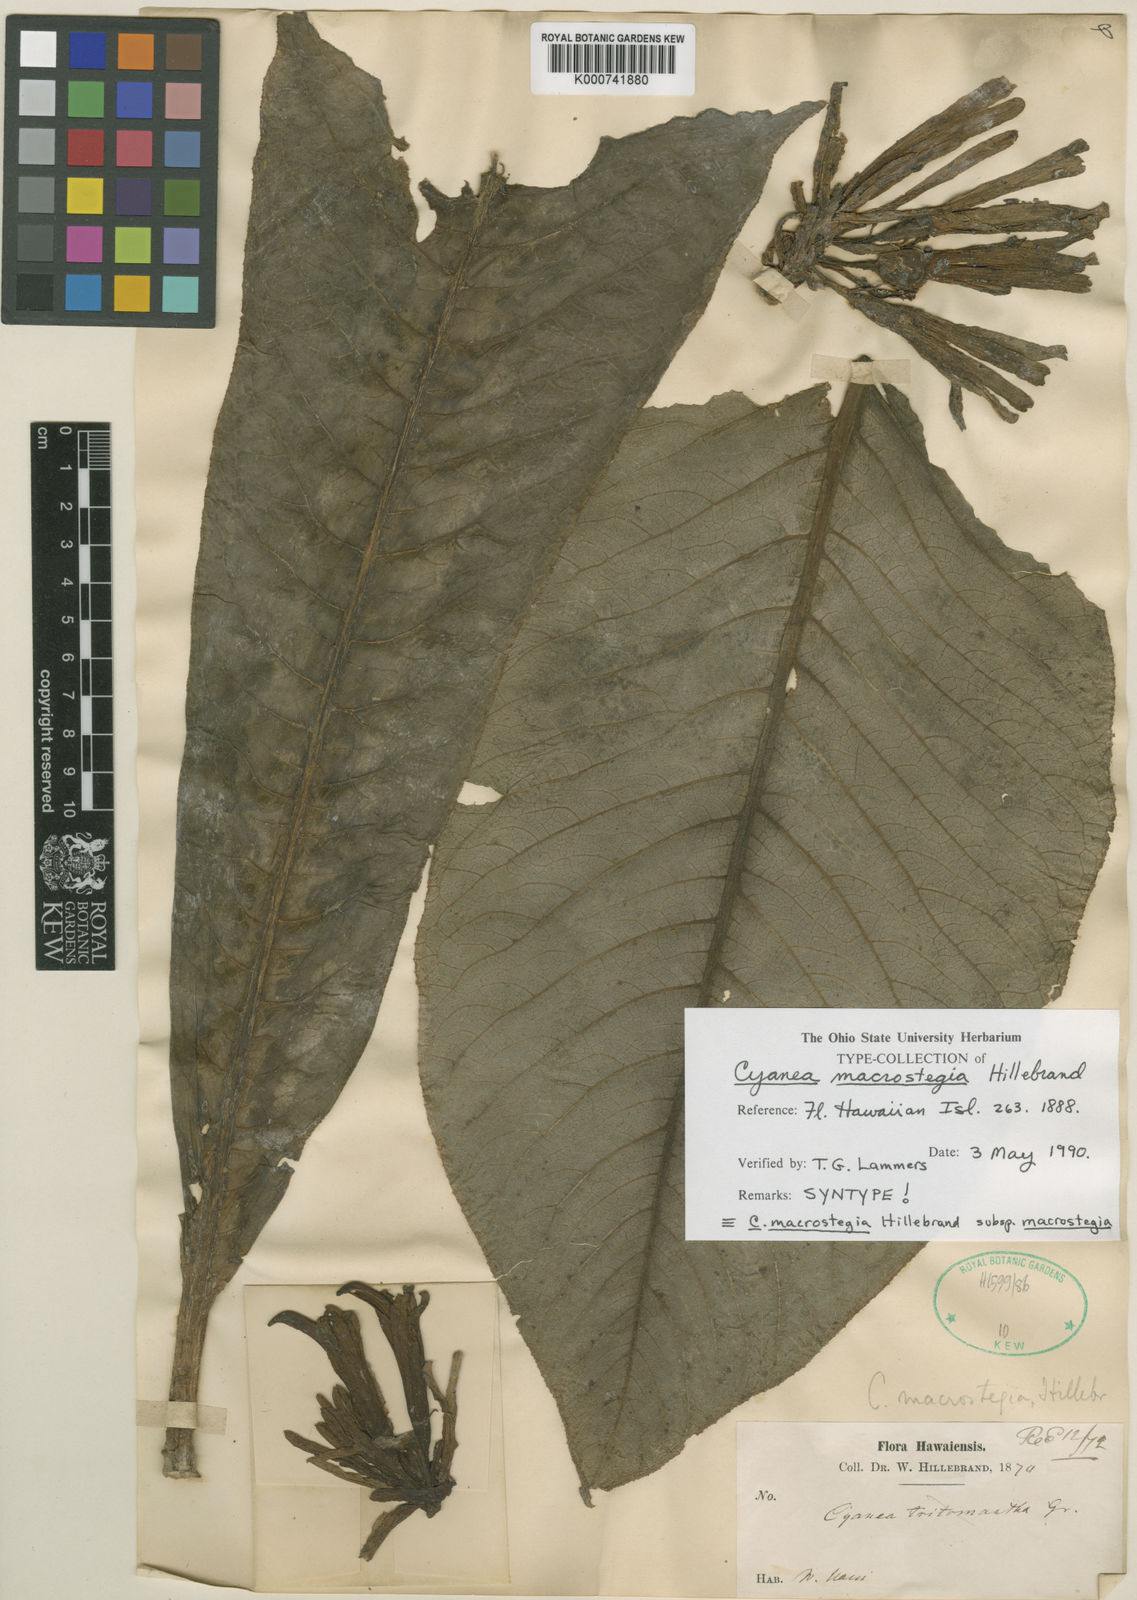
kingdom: Plantae
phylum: Tracheophyta
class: Magnoliopsida
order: Asterales
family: Campanulaceae
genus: Cyanea
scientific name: Cyanea macrostegia
